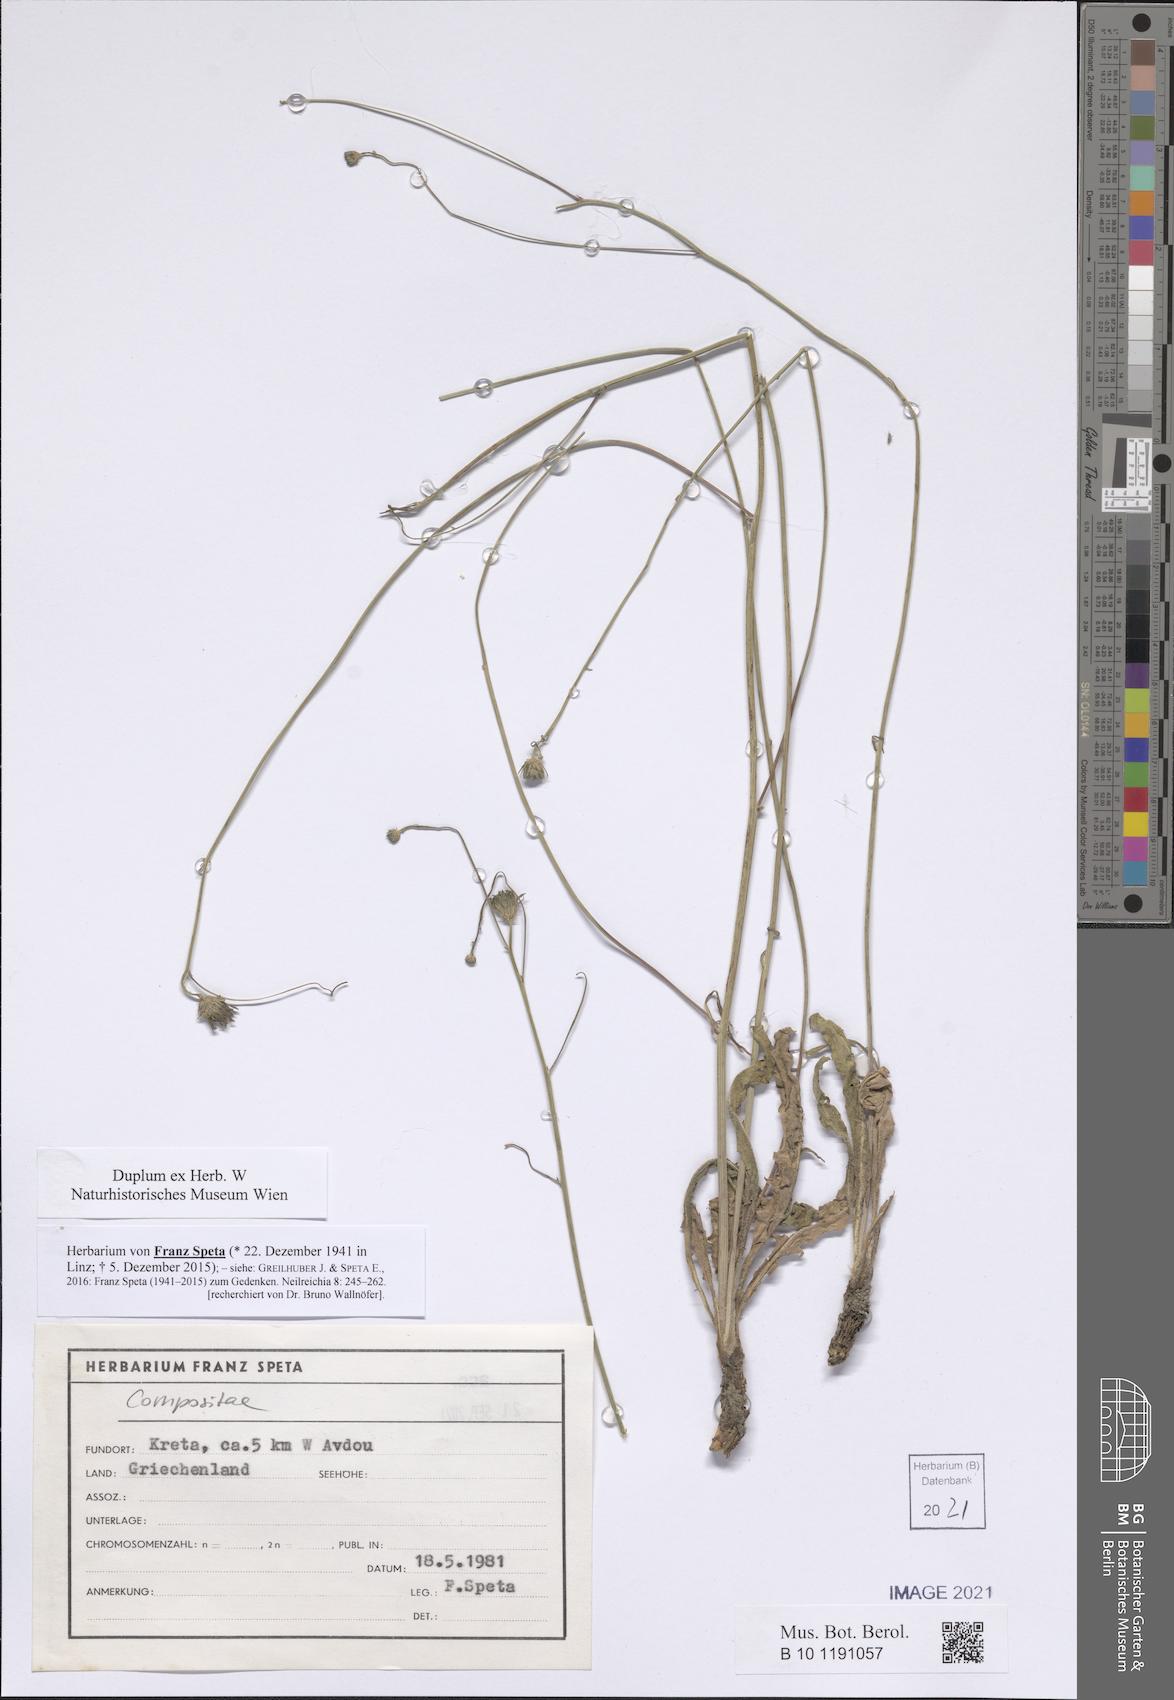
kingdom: Plantae
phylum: Tracheophyta
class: Magnoliopsida
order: Asterales
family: Asteraceae
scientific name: Asteraceae
